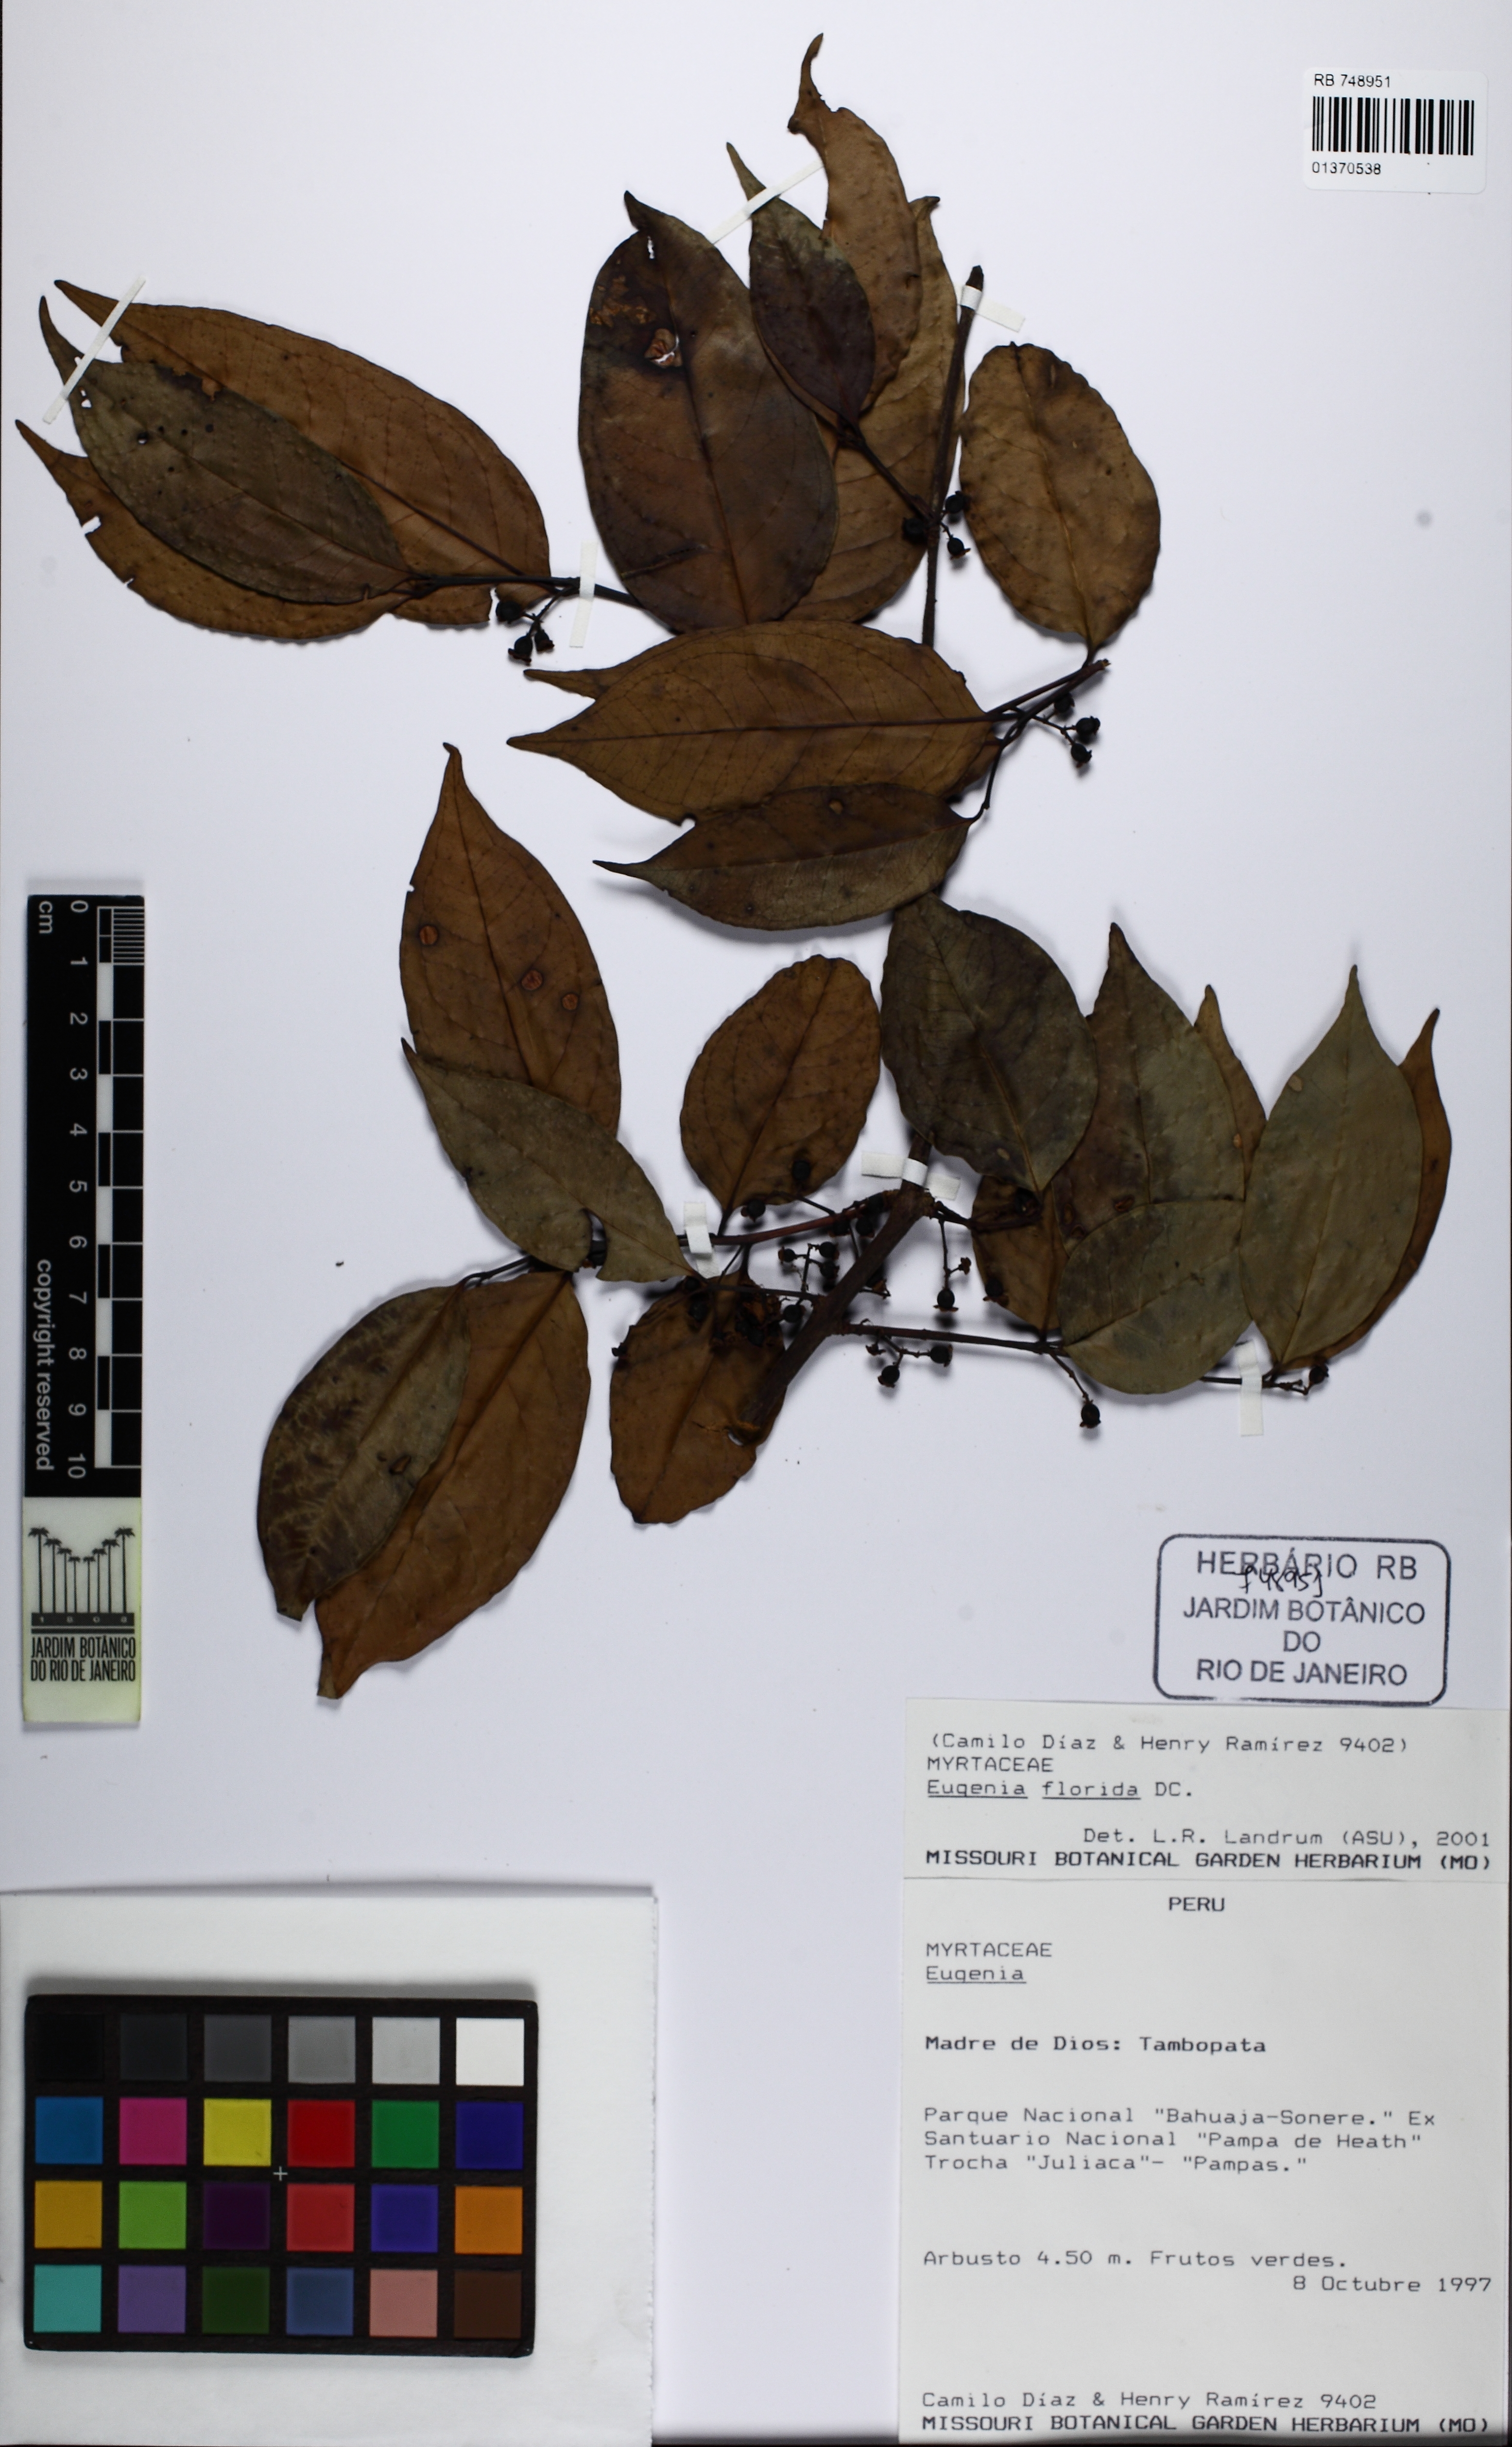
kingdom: Plantae
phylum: Tracheophyta
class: Magnoliopsida
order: Myrtales
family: Myrtaceae
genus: Eugenia
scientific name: Eugenia florida
